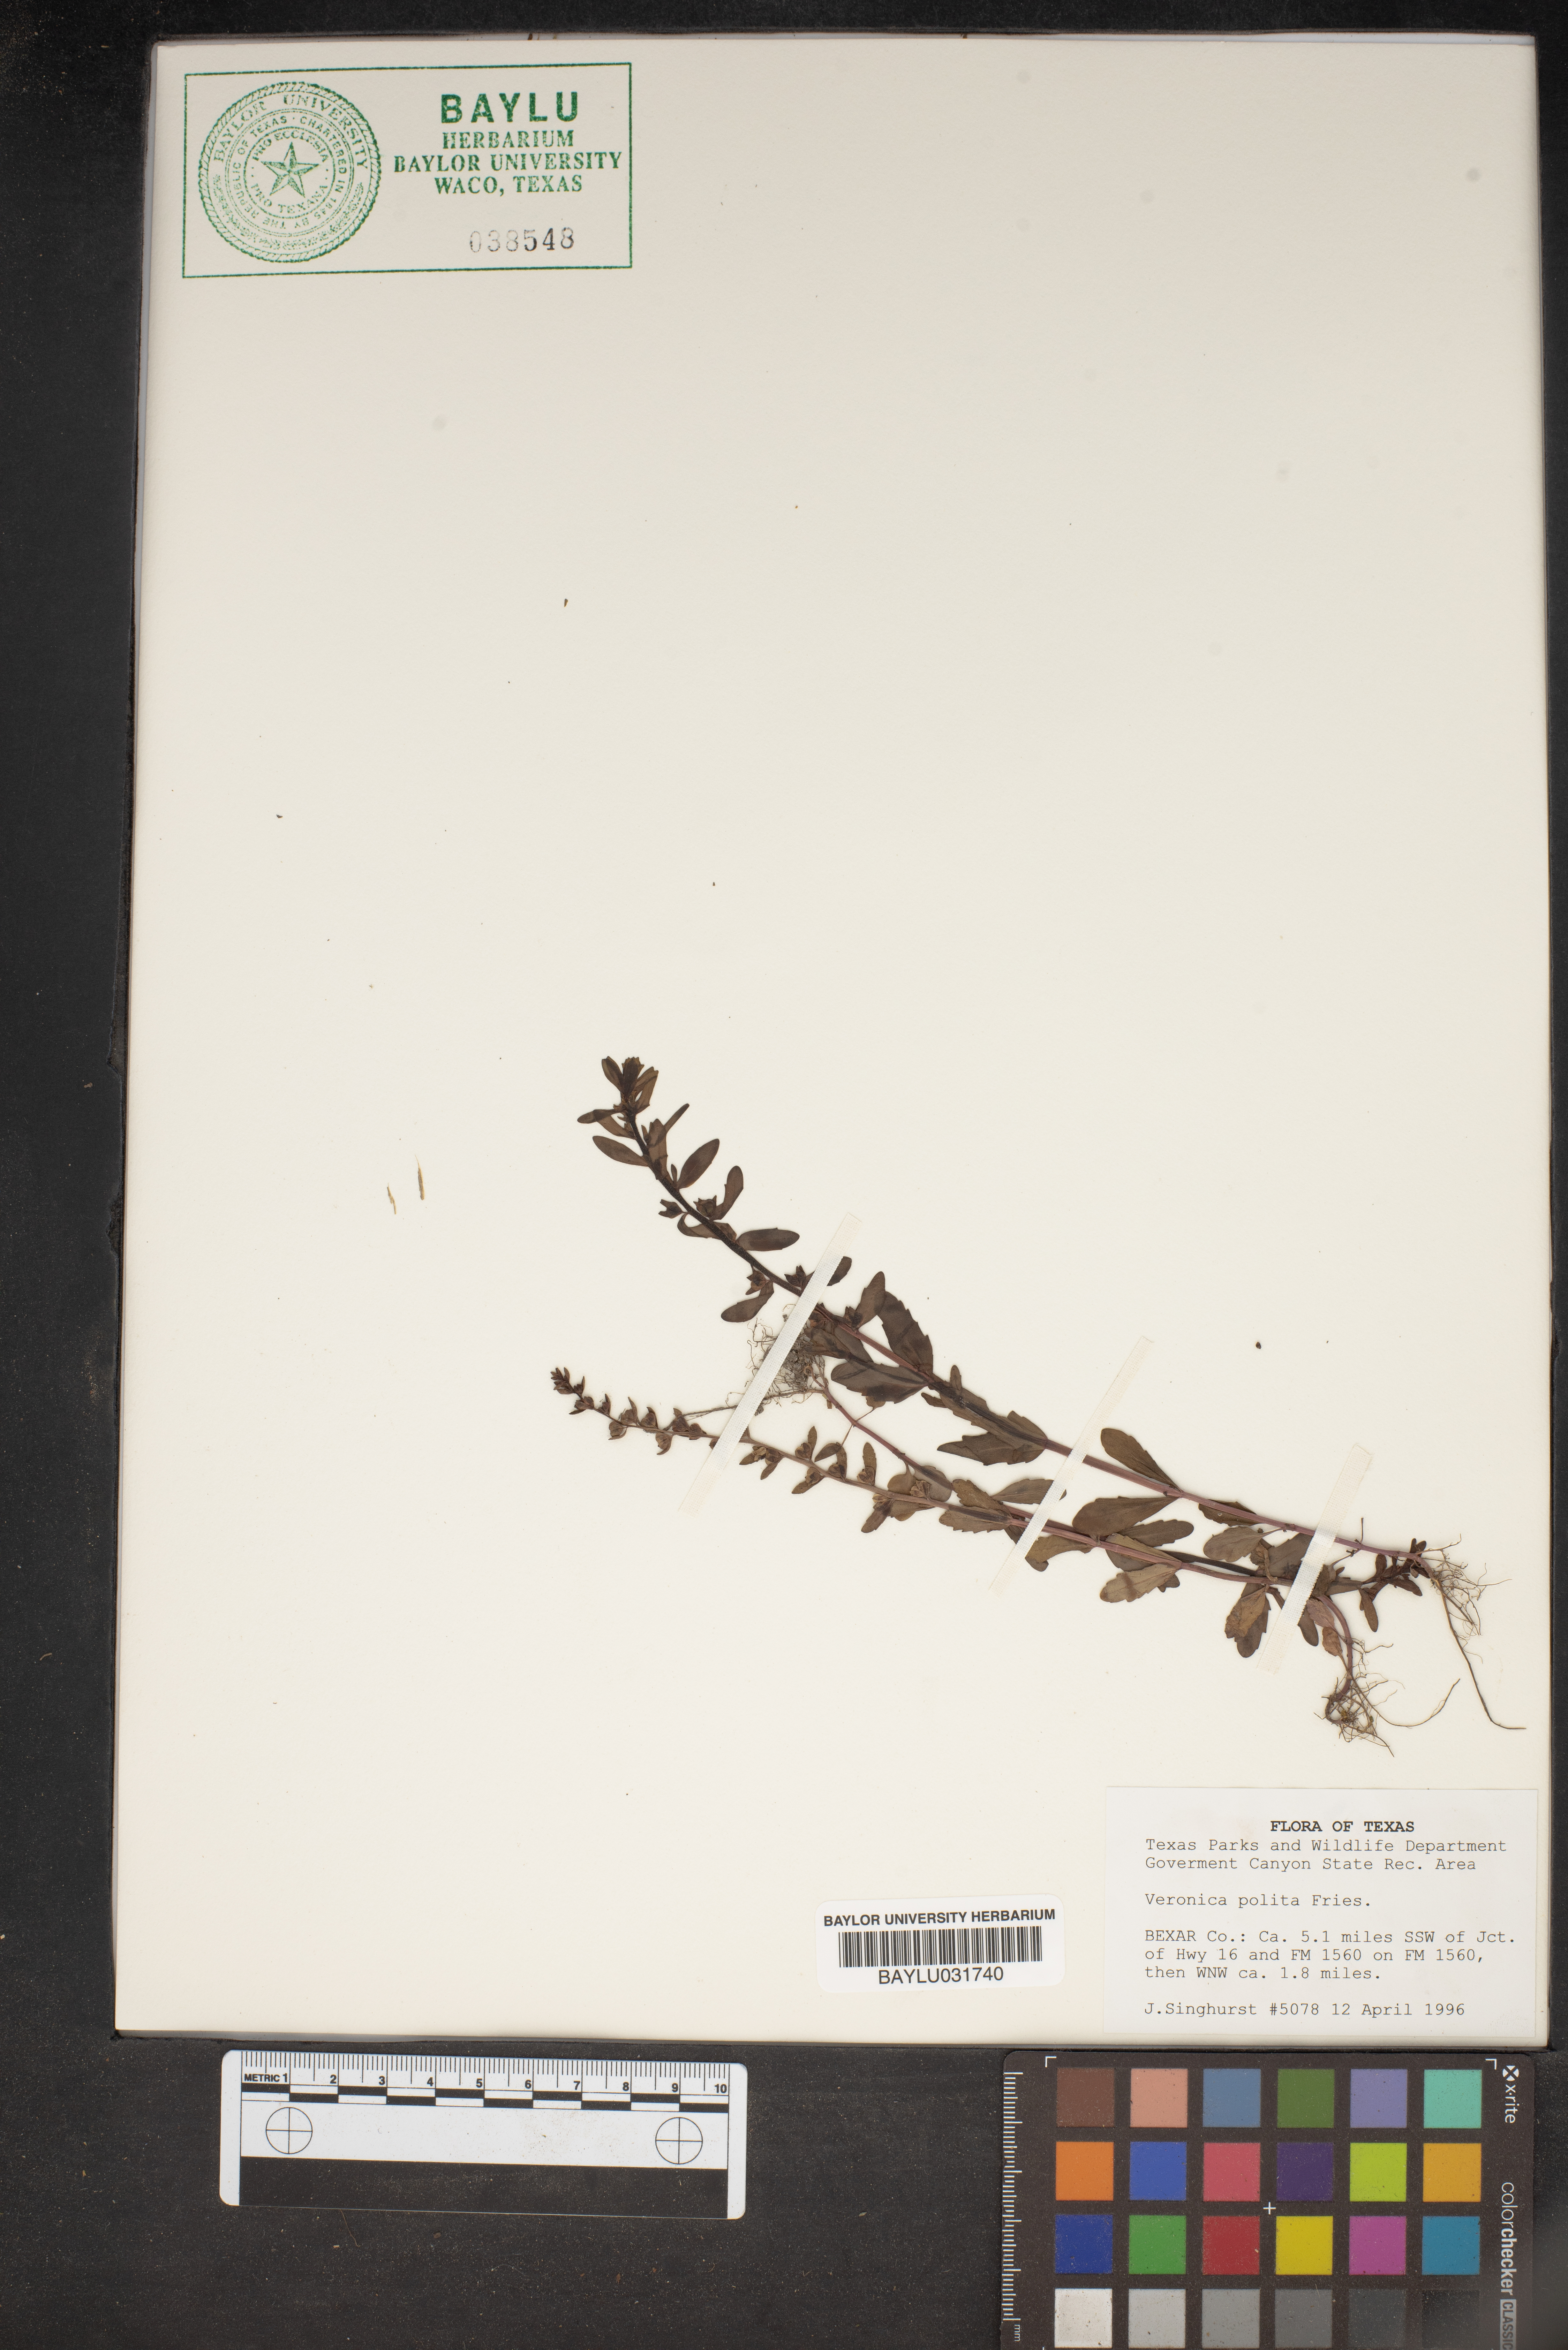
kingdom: Plantae
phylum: Tracheophyta
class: Magnoliopsida
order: Lamiales
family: Plantaginaceae
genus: Veronica
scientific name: Veronica polita
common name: Grey field-speedwell
